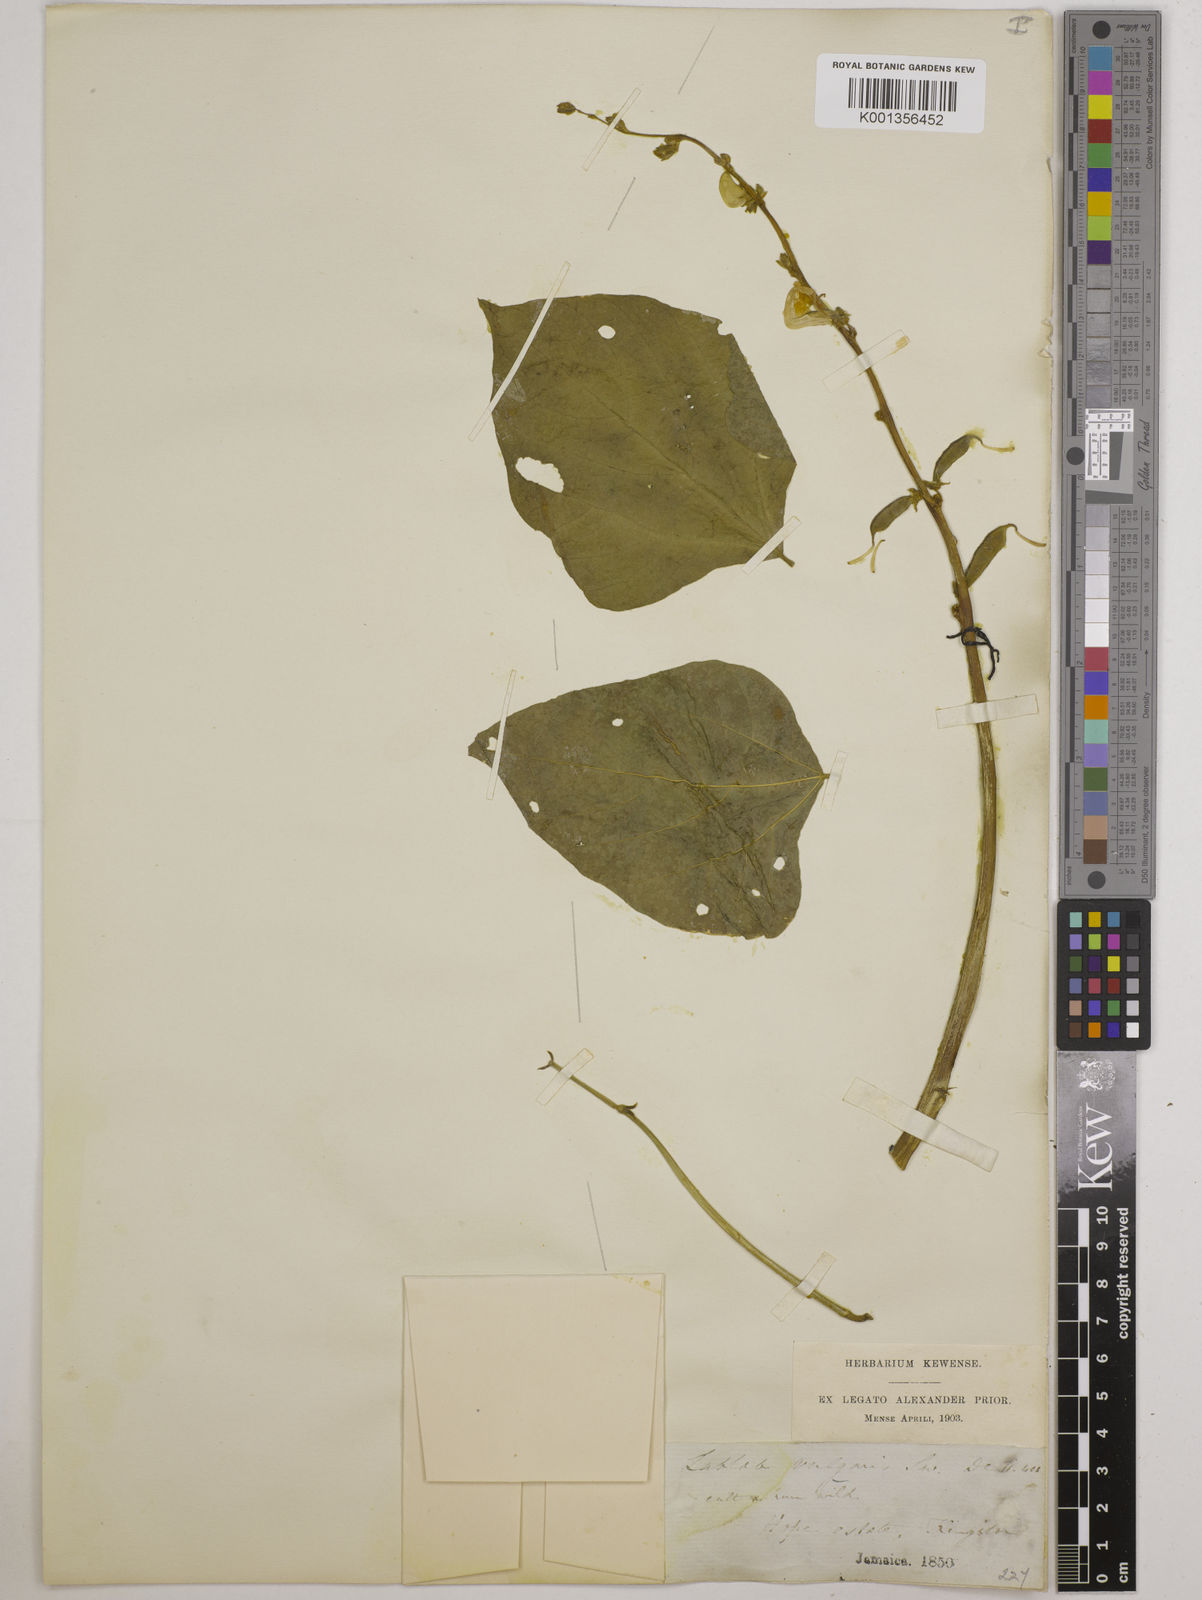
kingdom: Plantae
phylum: Tracheophyta
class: Magnoliopsida
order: Fabales
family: Fabaceae
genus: Lablab
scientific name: Lablab purpureus
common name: Lablab-bean
